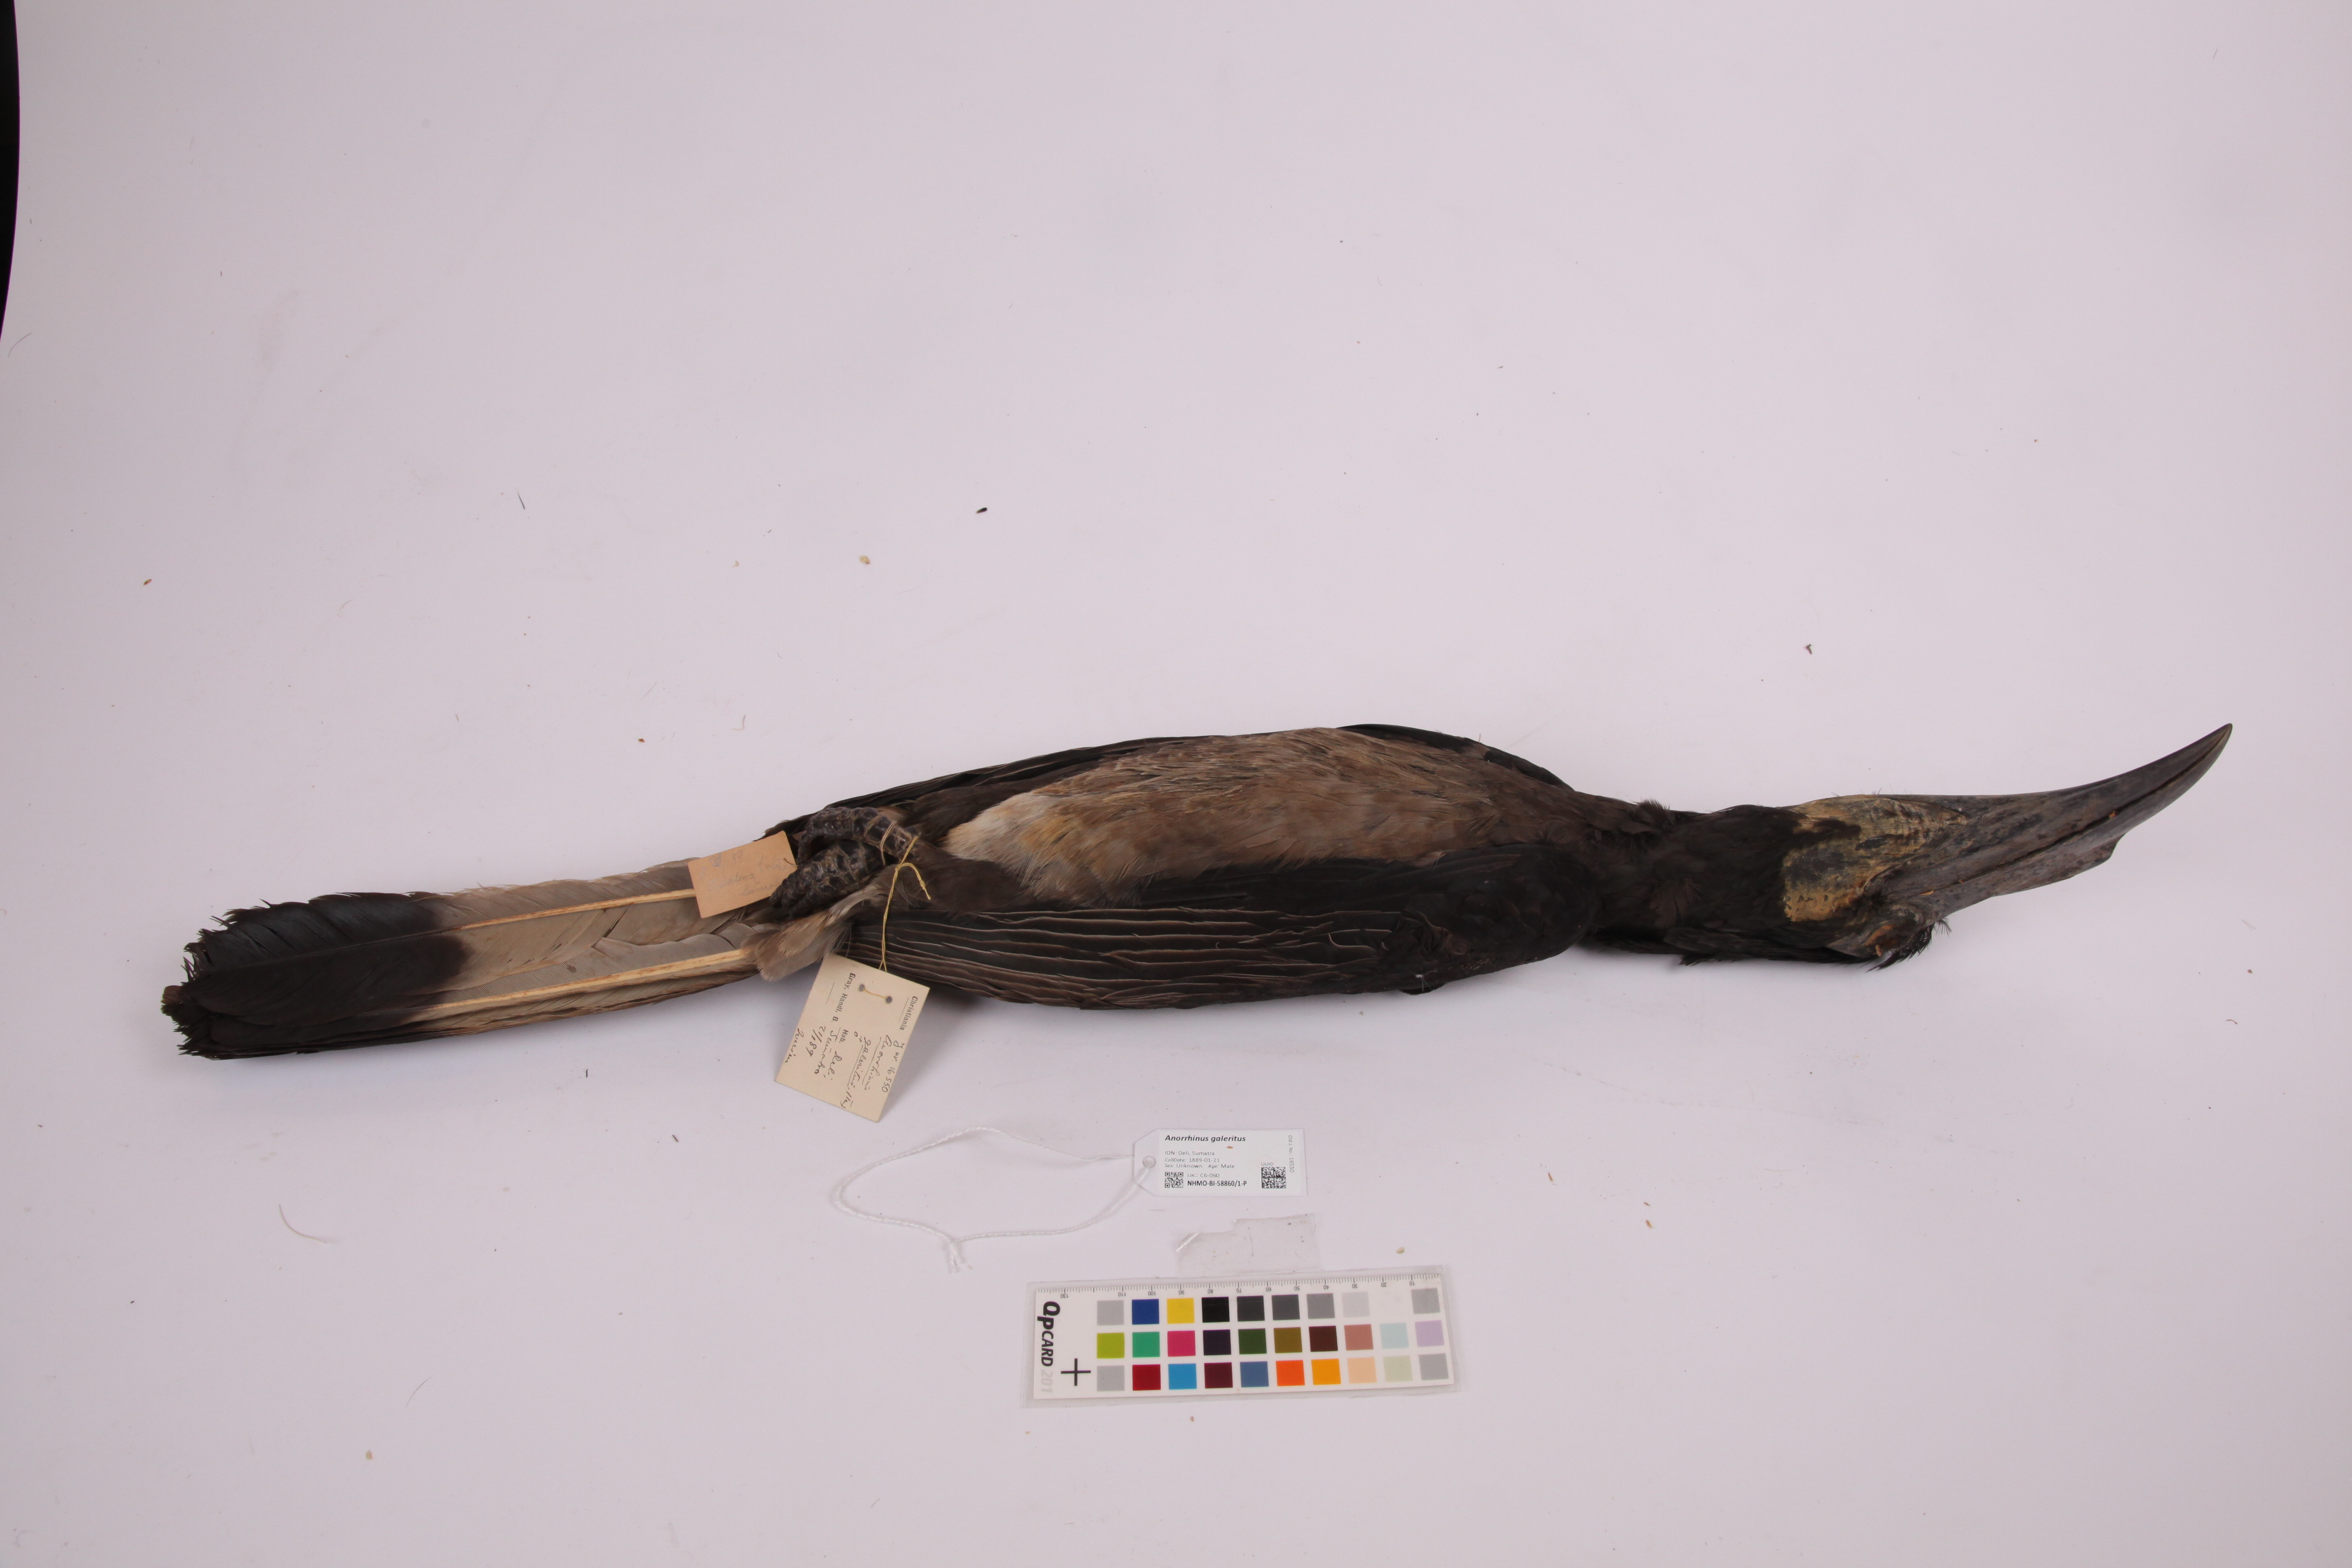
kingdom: Animalia
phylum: Chordata
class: Aves
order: Bucerotiformes
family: Bucerotidae
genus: Anorrhinus
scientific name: Anorrhinus galeritus
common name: Bushy-crested hornbill
